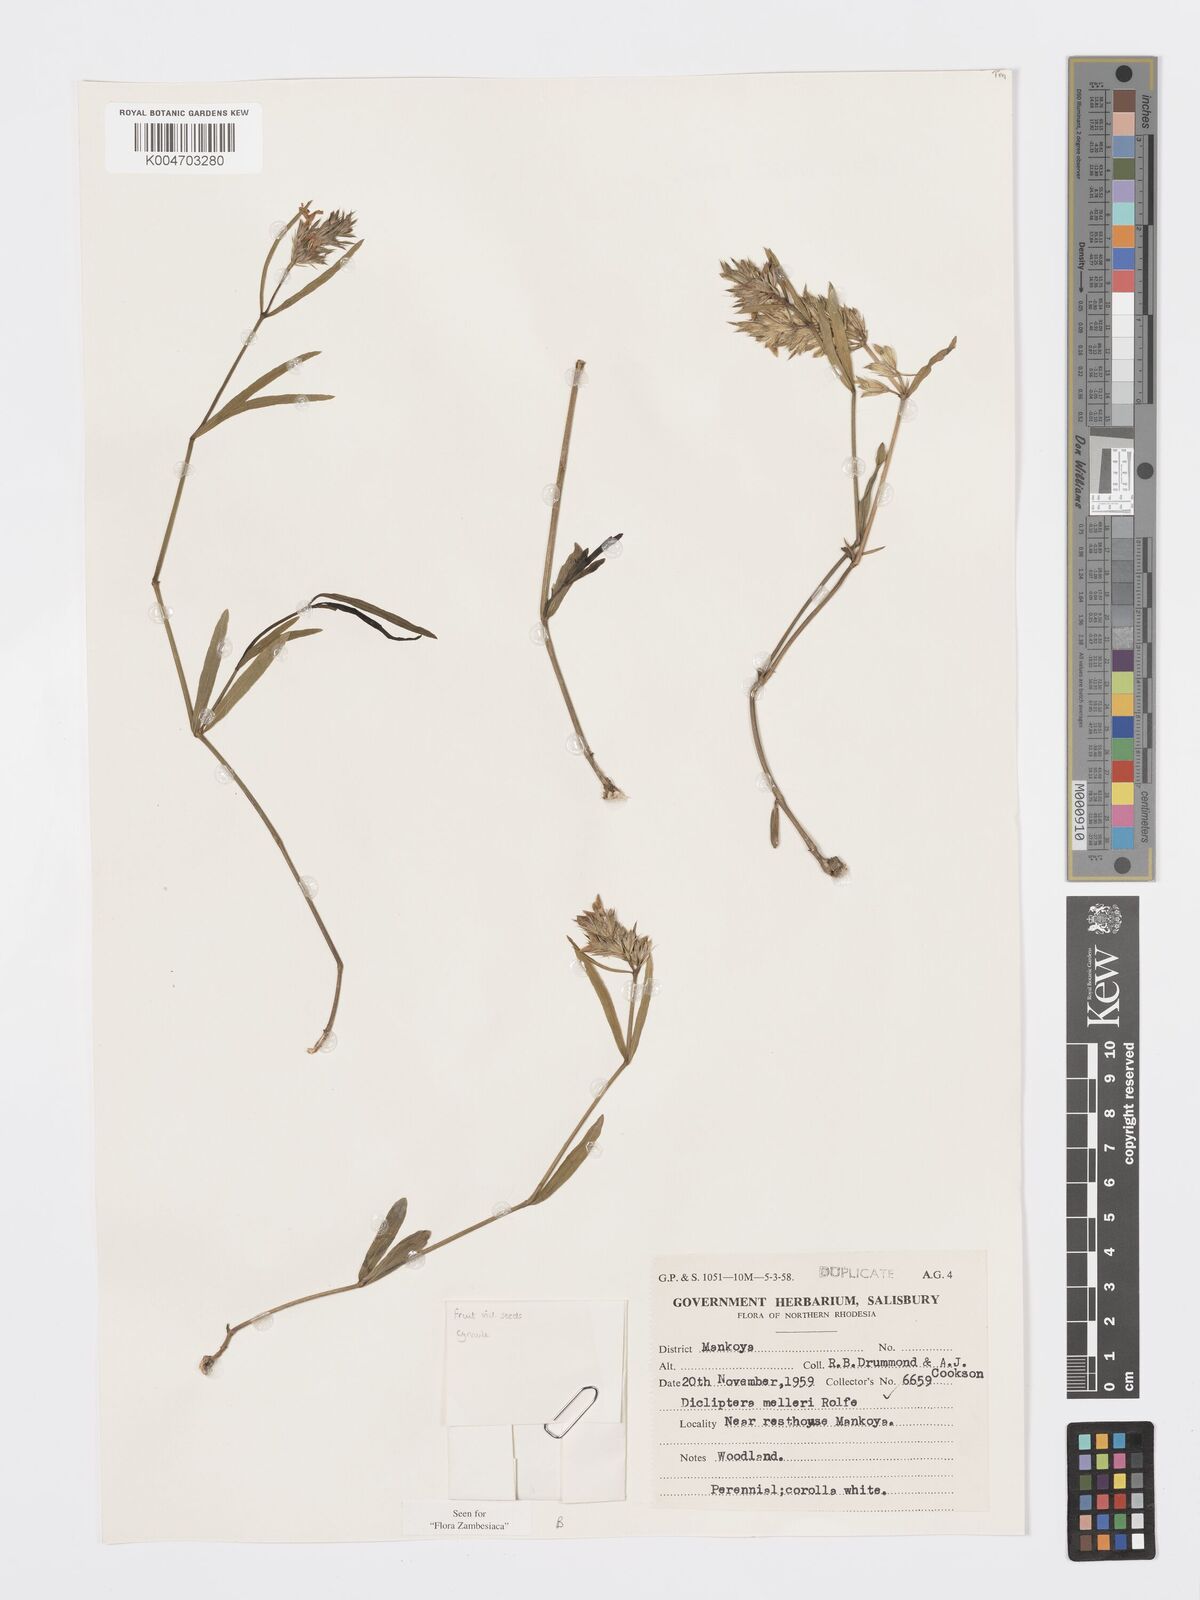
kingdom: Plantae
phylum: Tracheophyta
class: Magnoliopsida
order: Lamiales
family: Acanthaceae
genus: Dicliptera
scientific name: Dicliptera melleri
